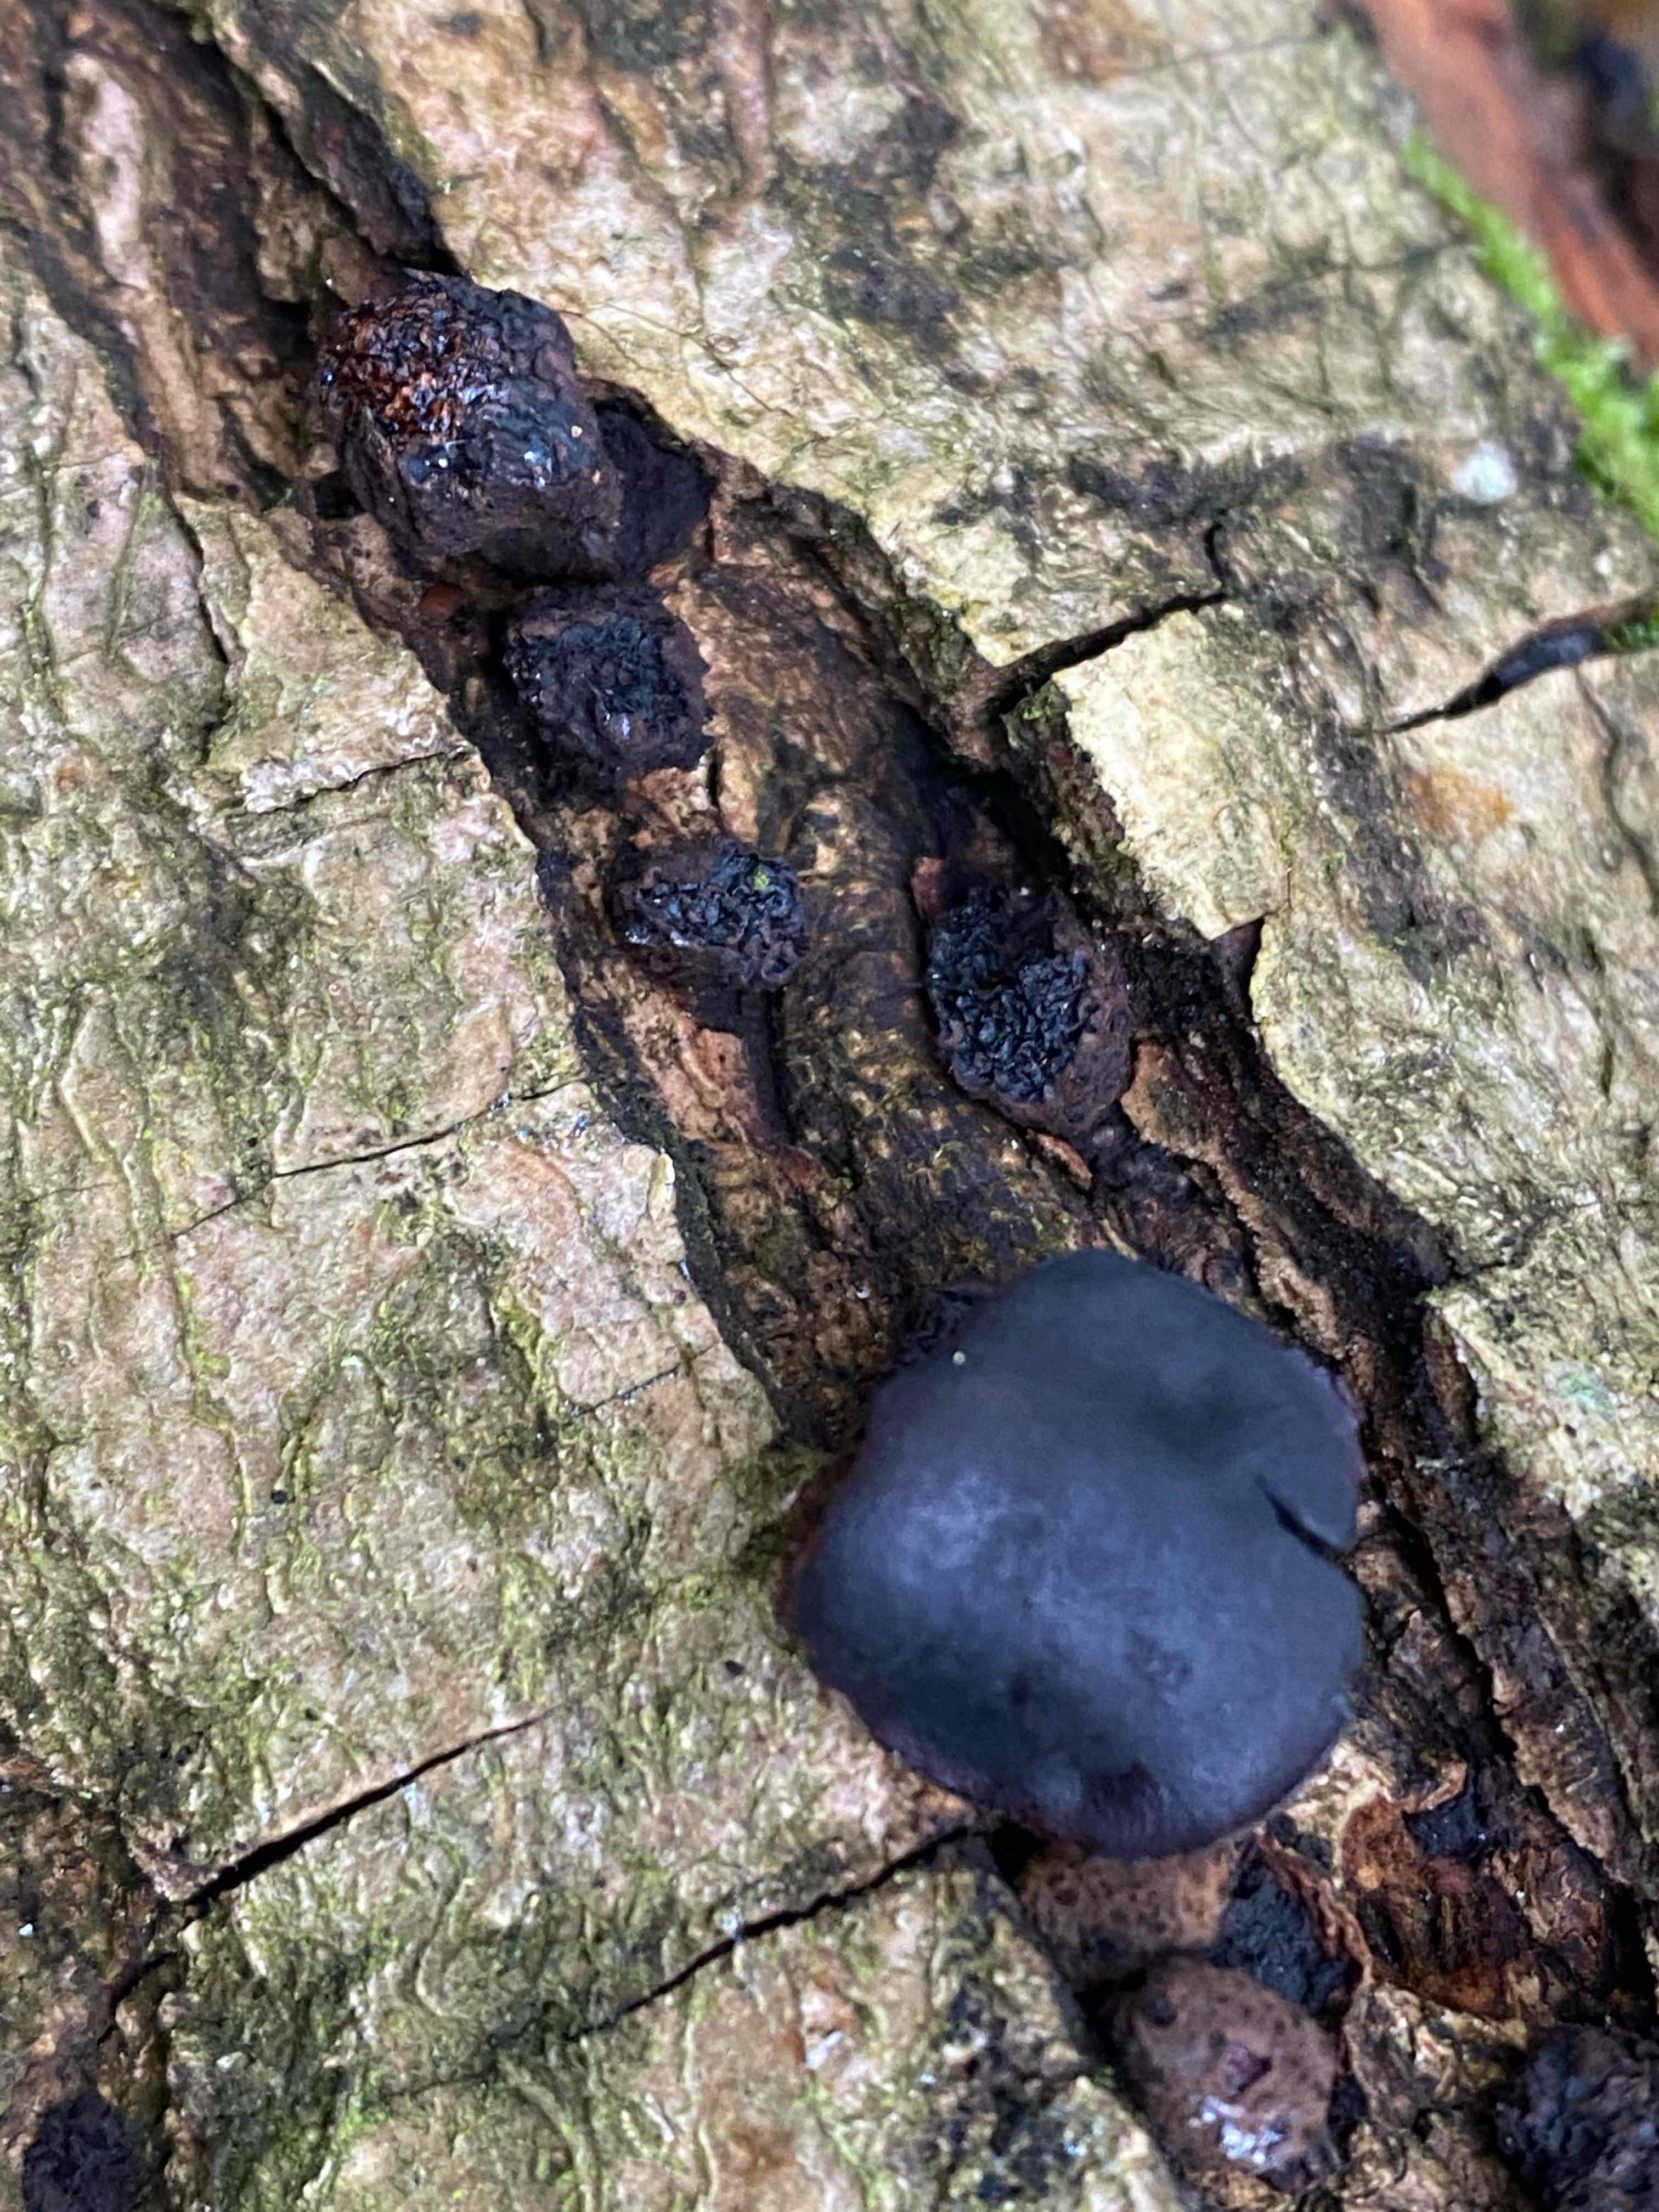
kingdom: Fungi
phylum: Ascomycota
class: Leotiomycetes
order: Phacidiales
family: Phacidiaceae
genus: Bulgaria
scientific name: Bulgaria inquinans
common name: afsmittende topsvamp
